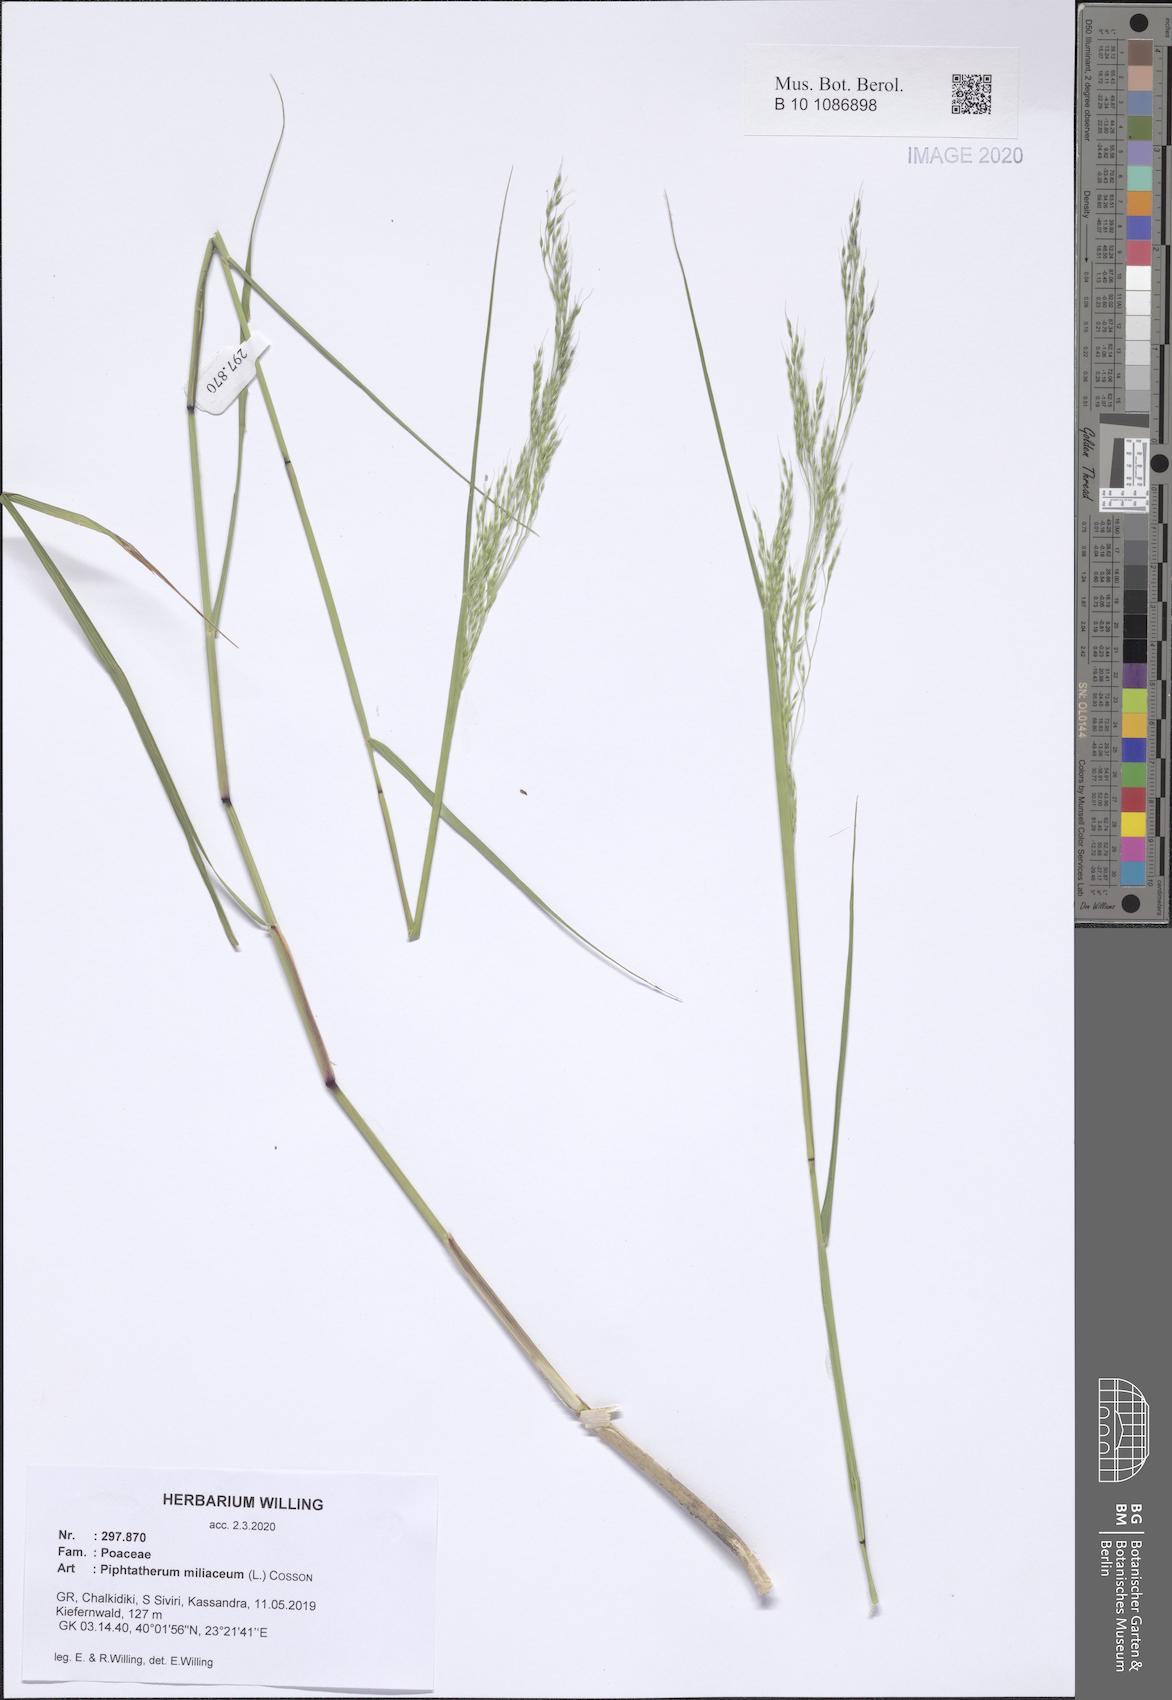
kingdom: Plantae
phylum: Tracheophyta
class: Liliopsida
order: Poales
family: Poaceae
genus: Oloptum
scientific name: Oloptum miliaceum
